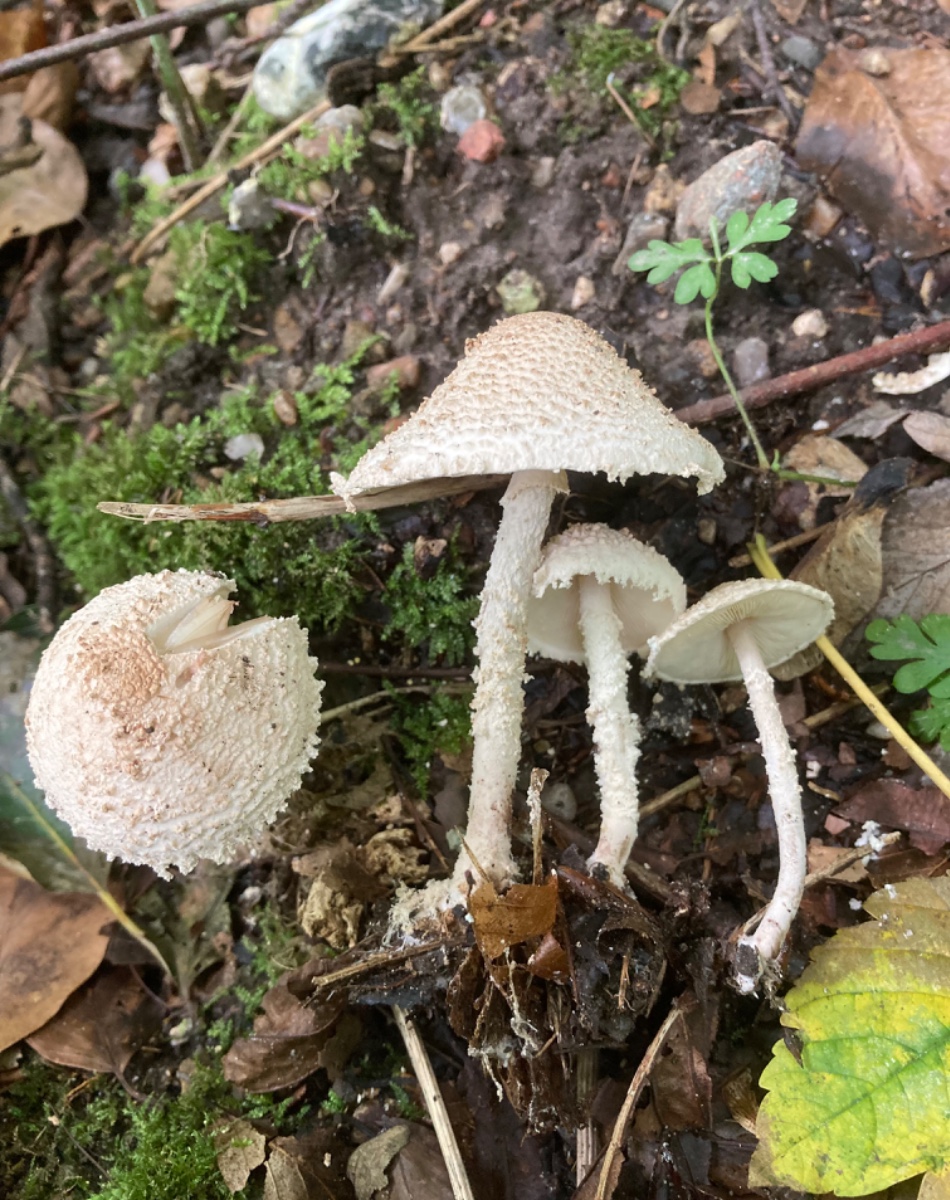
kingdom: Fungi
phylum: Basidiomycota
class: Agaricomycetes
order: Agaricales
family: Agaricaceae
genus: Cystolepiota
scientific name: Cystolepiota adulterina
